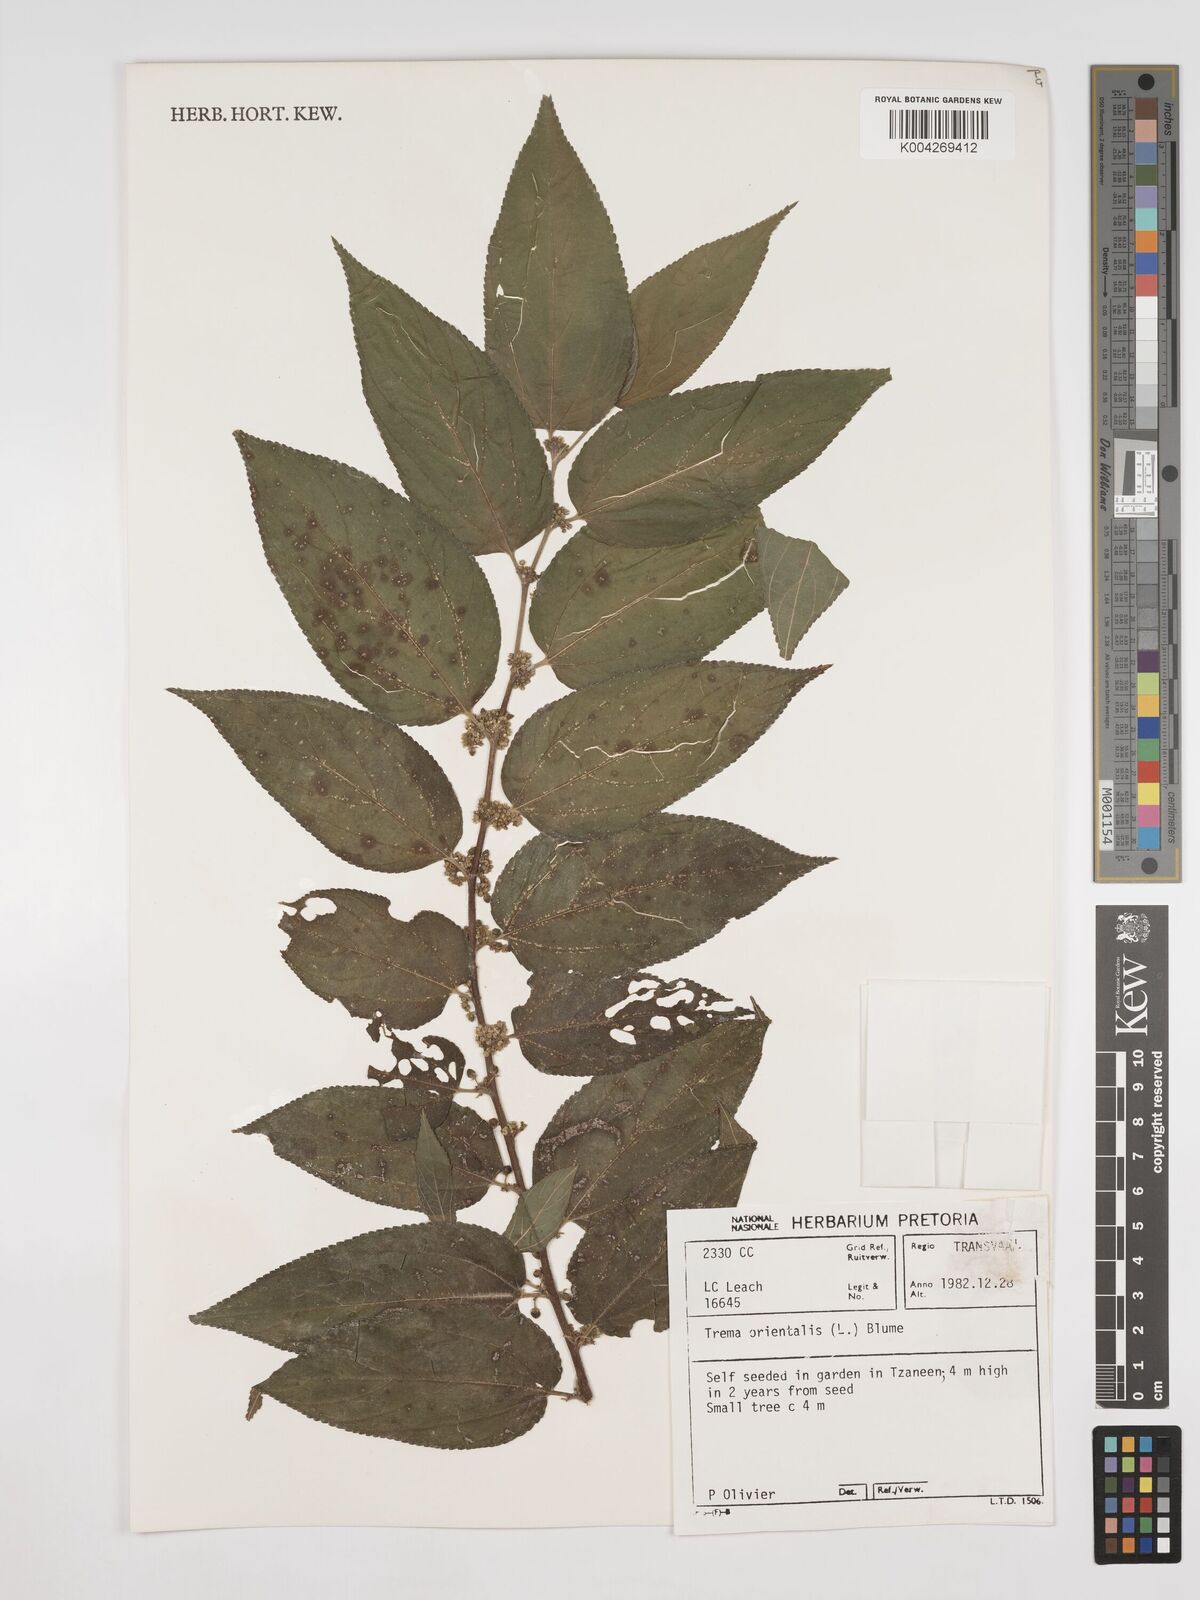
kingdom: Plantae
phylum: Tracheophyta
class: Magnoliopsida
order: Rosales
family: Cannabaceae
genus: Trema
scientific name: Trema orientale
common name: Indian charcoal tree
